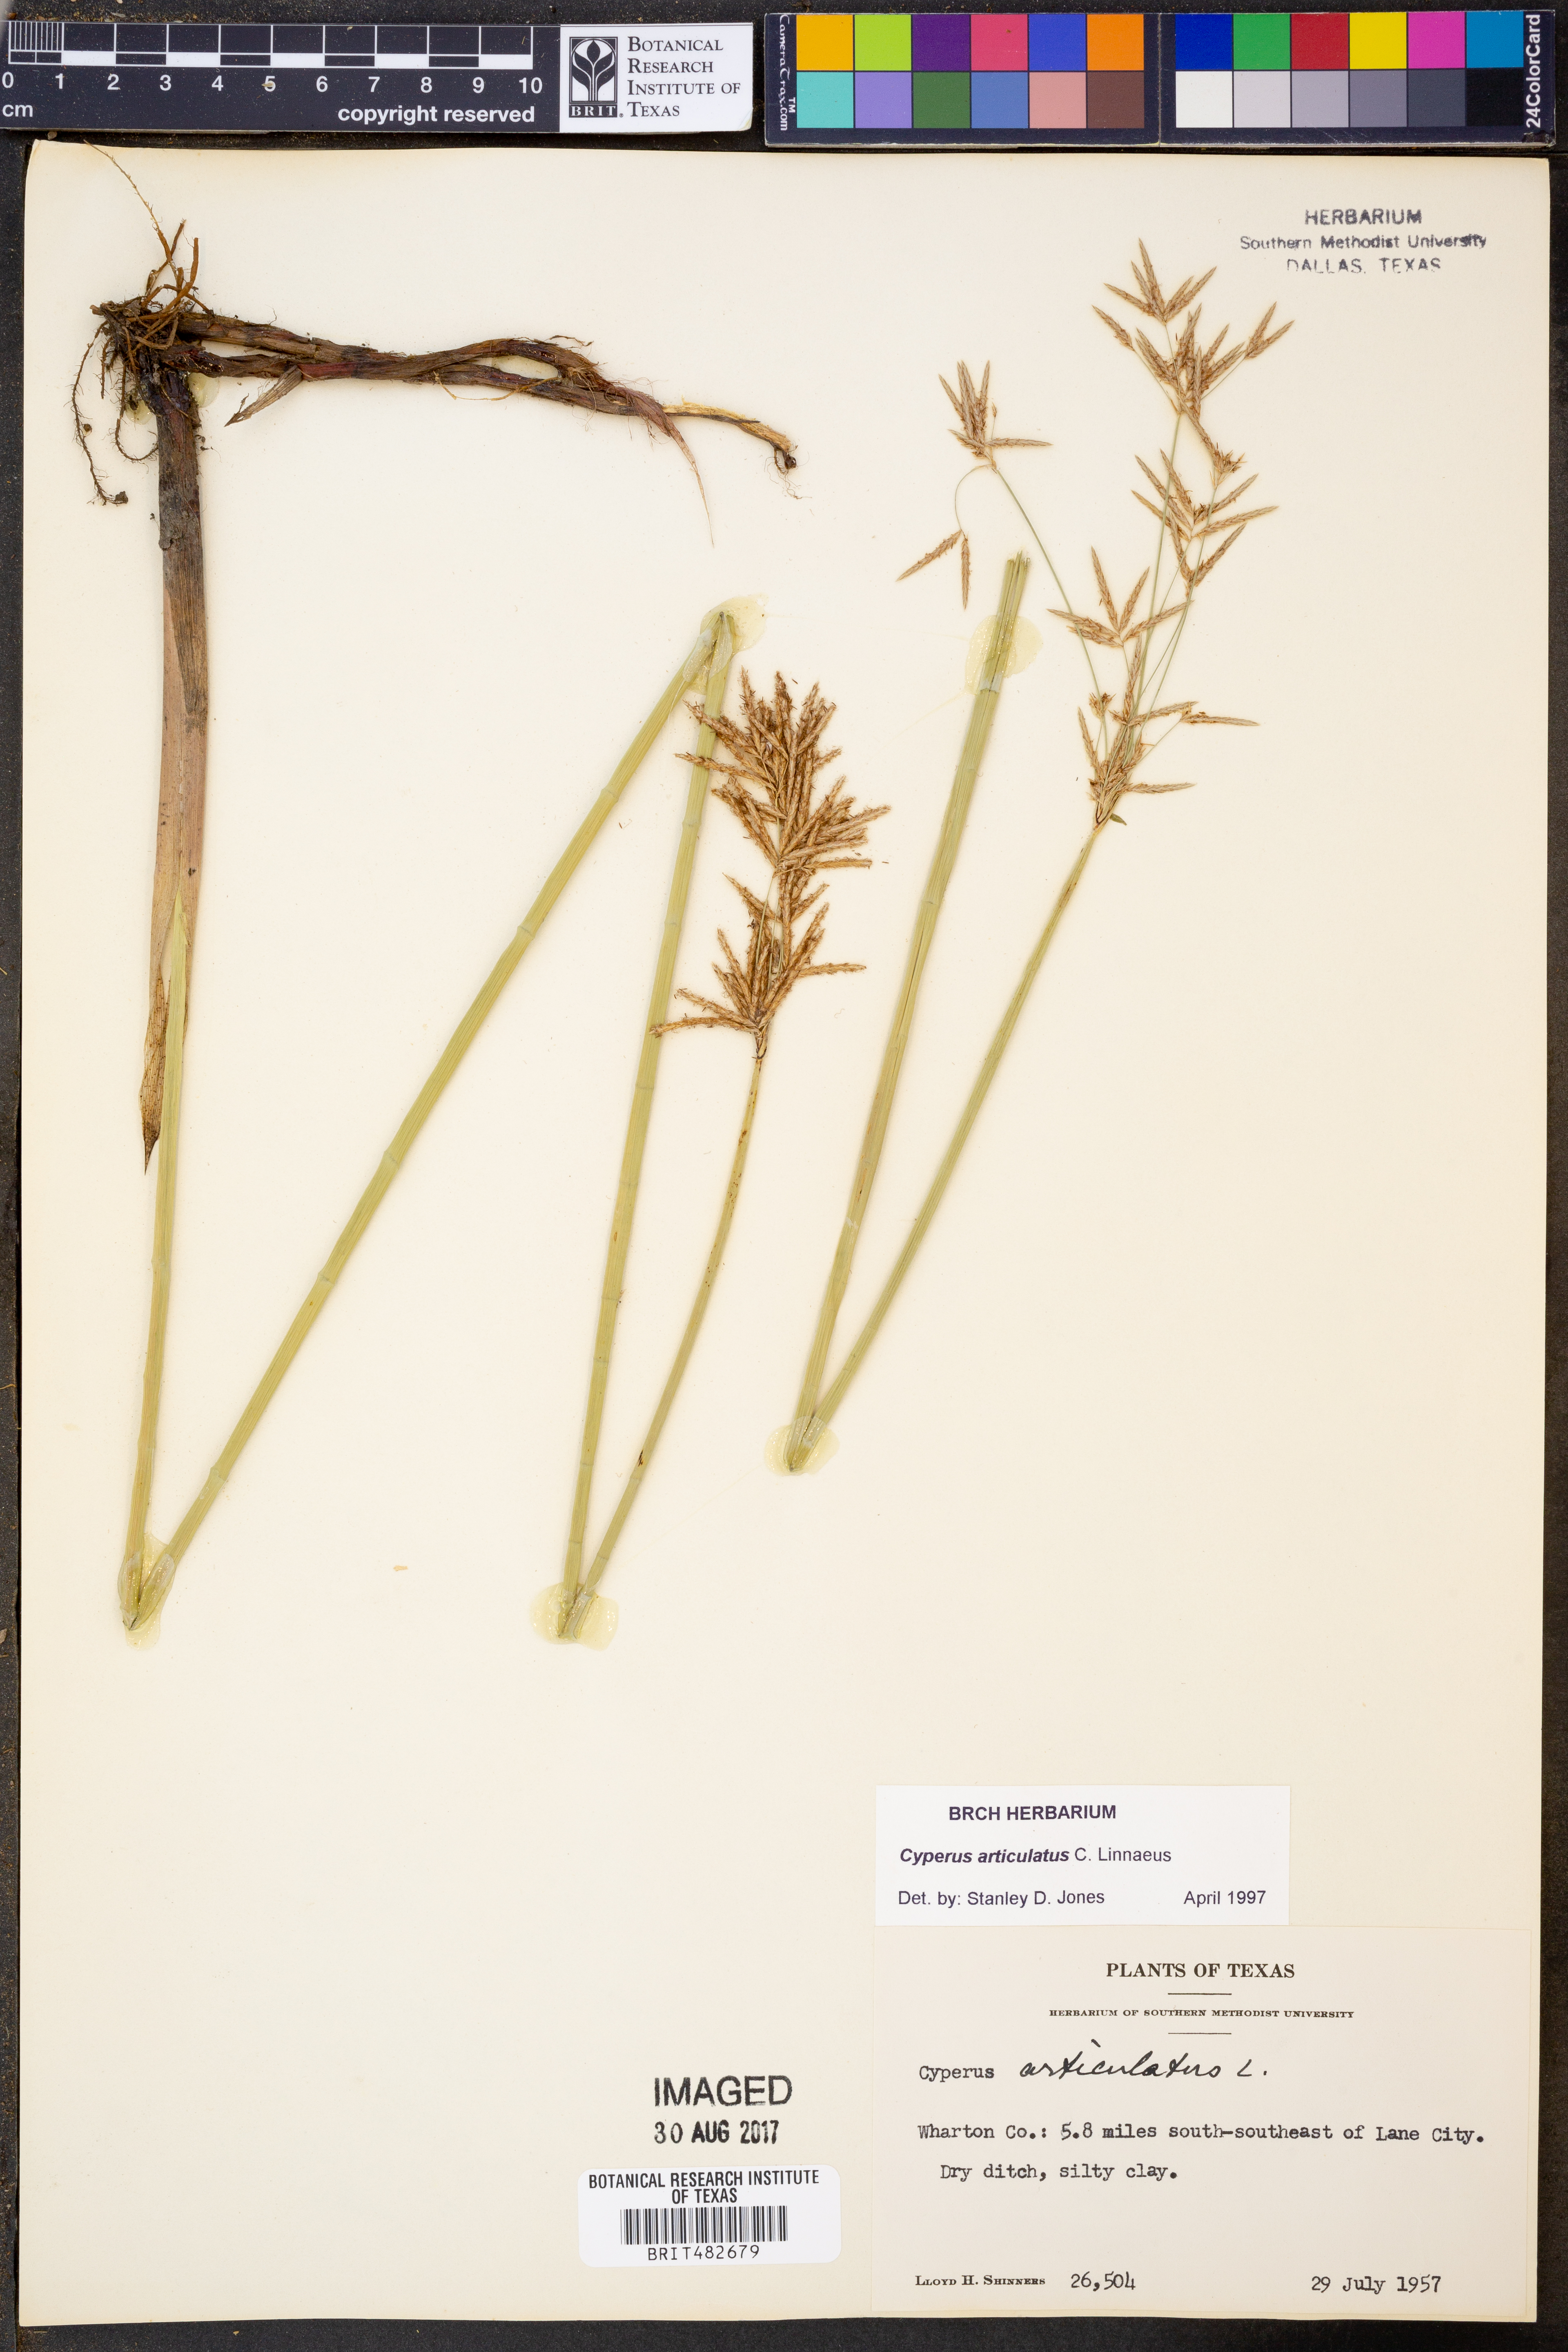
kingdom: Plantae
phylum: Tracheophyta
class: Liliopsida
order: Poales
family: Cyperaceae
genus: Cyperus
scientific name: Cyperus articulatus
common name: Jointed flatsedge
